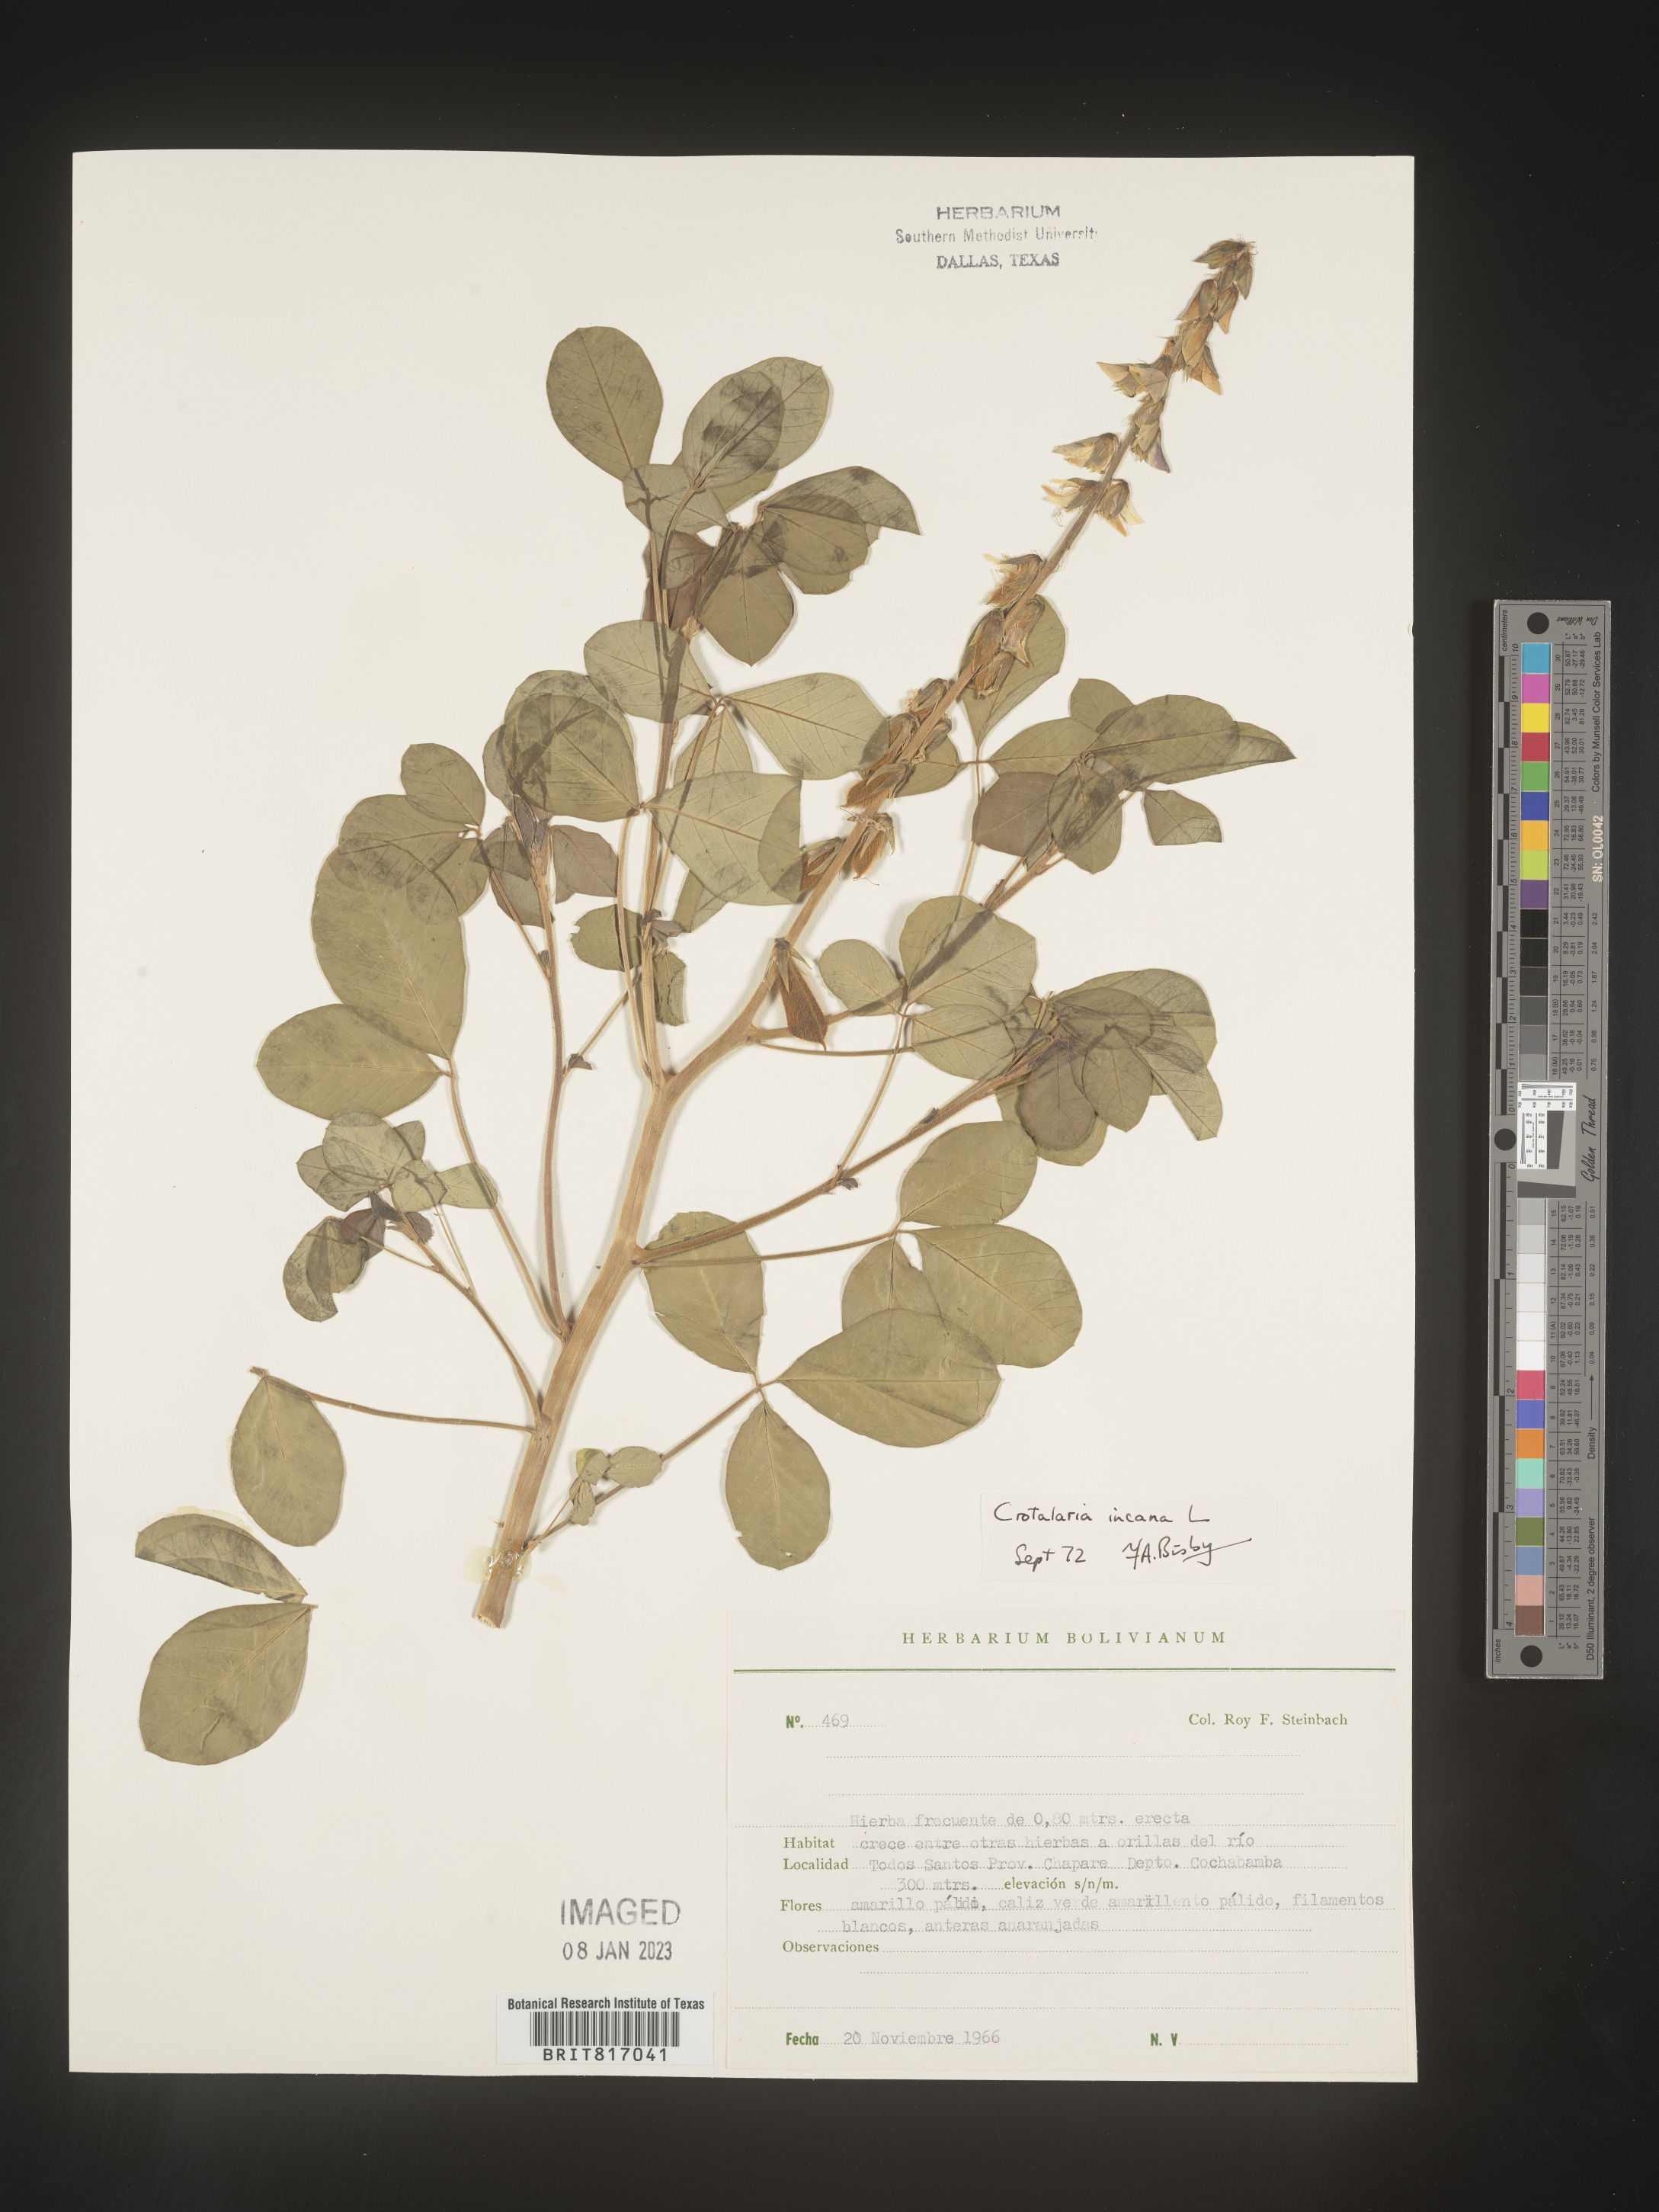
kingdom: Plantae
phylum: Tracheophyta
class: Magnoliopsida
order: Fabales
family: Fabaceae
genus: Crotalaria
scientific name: Crotalaria
